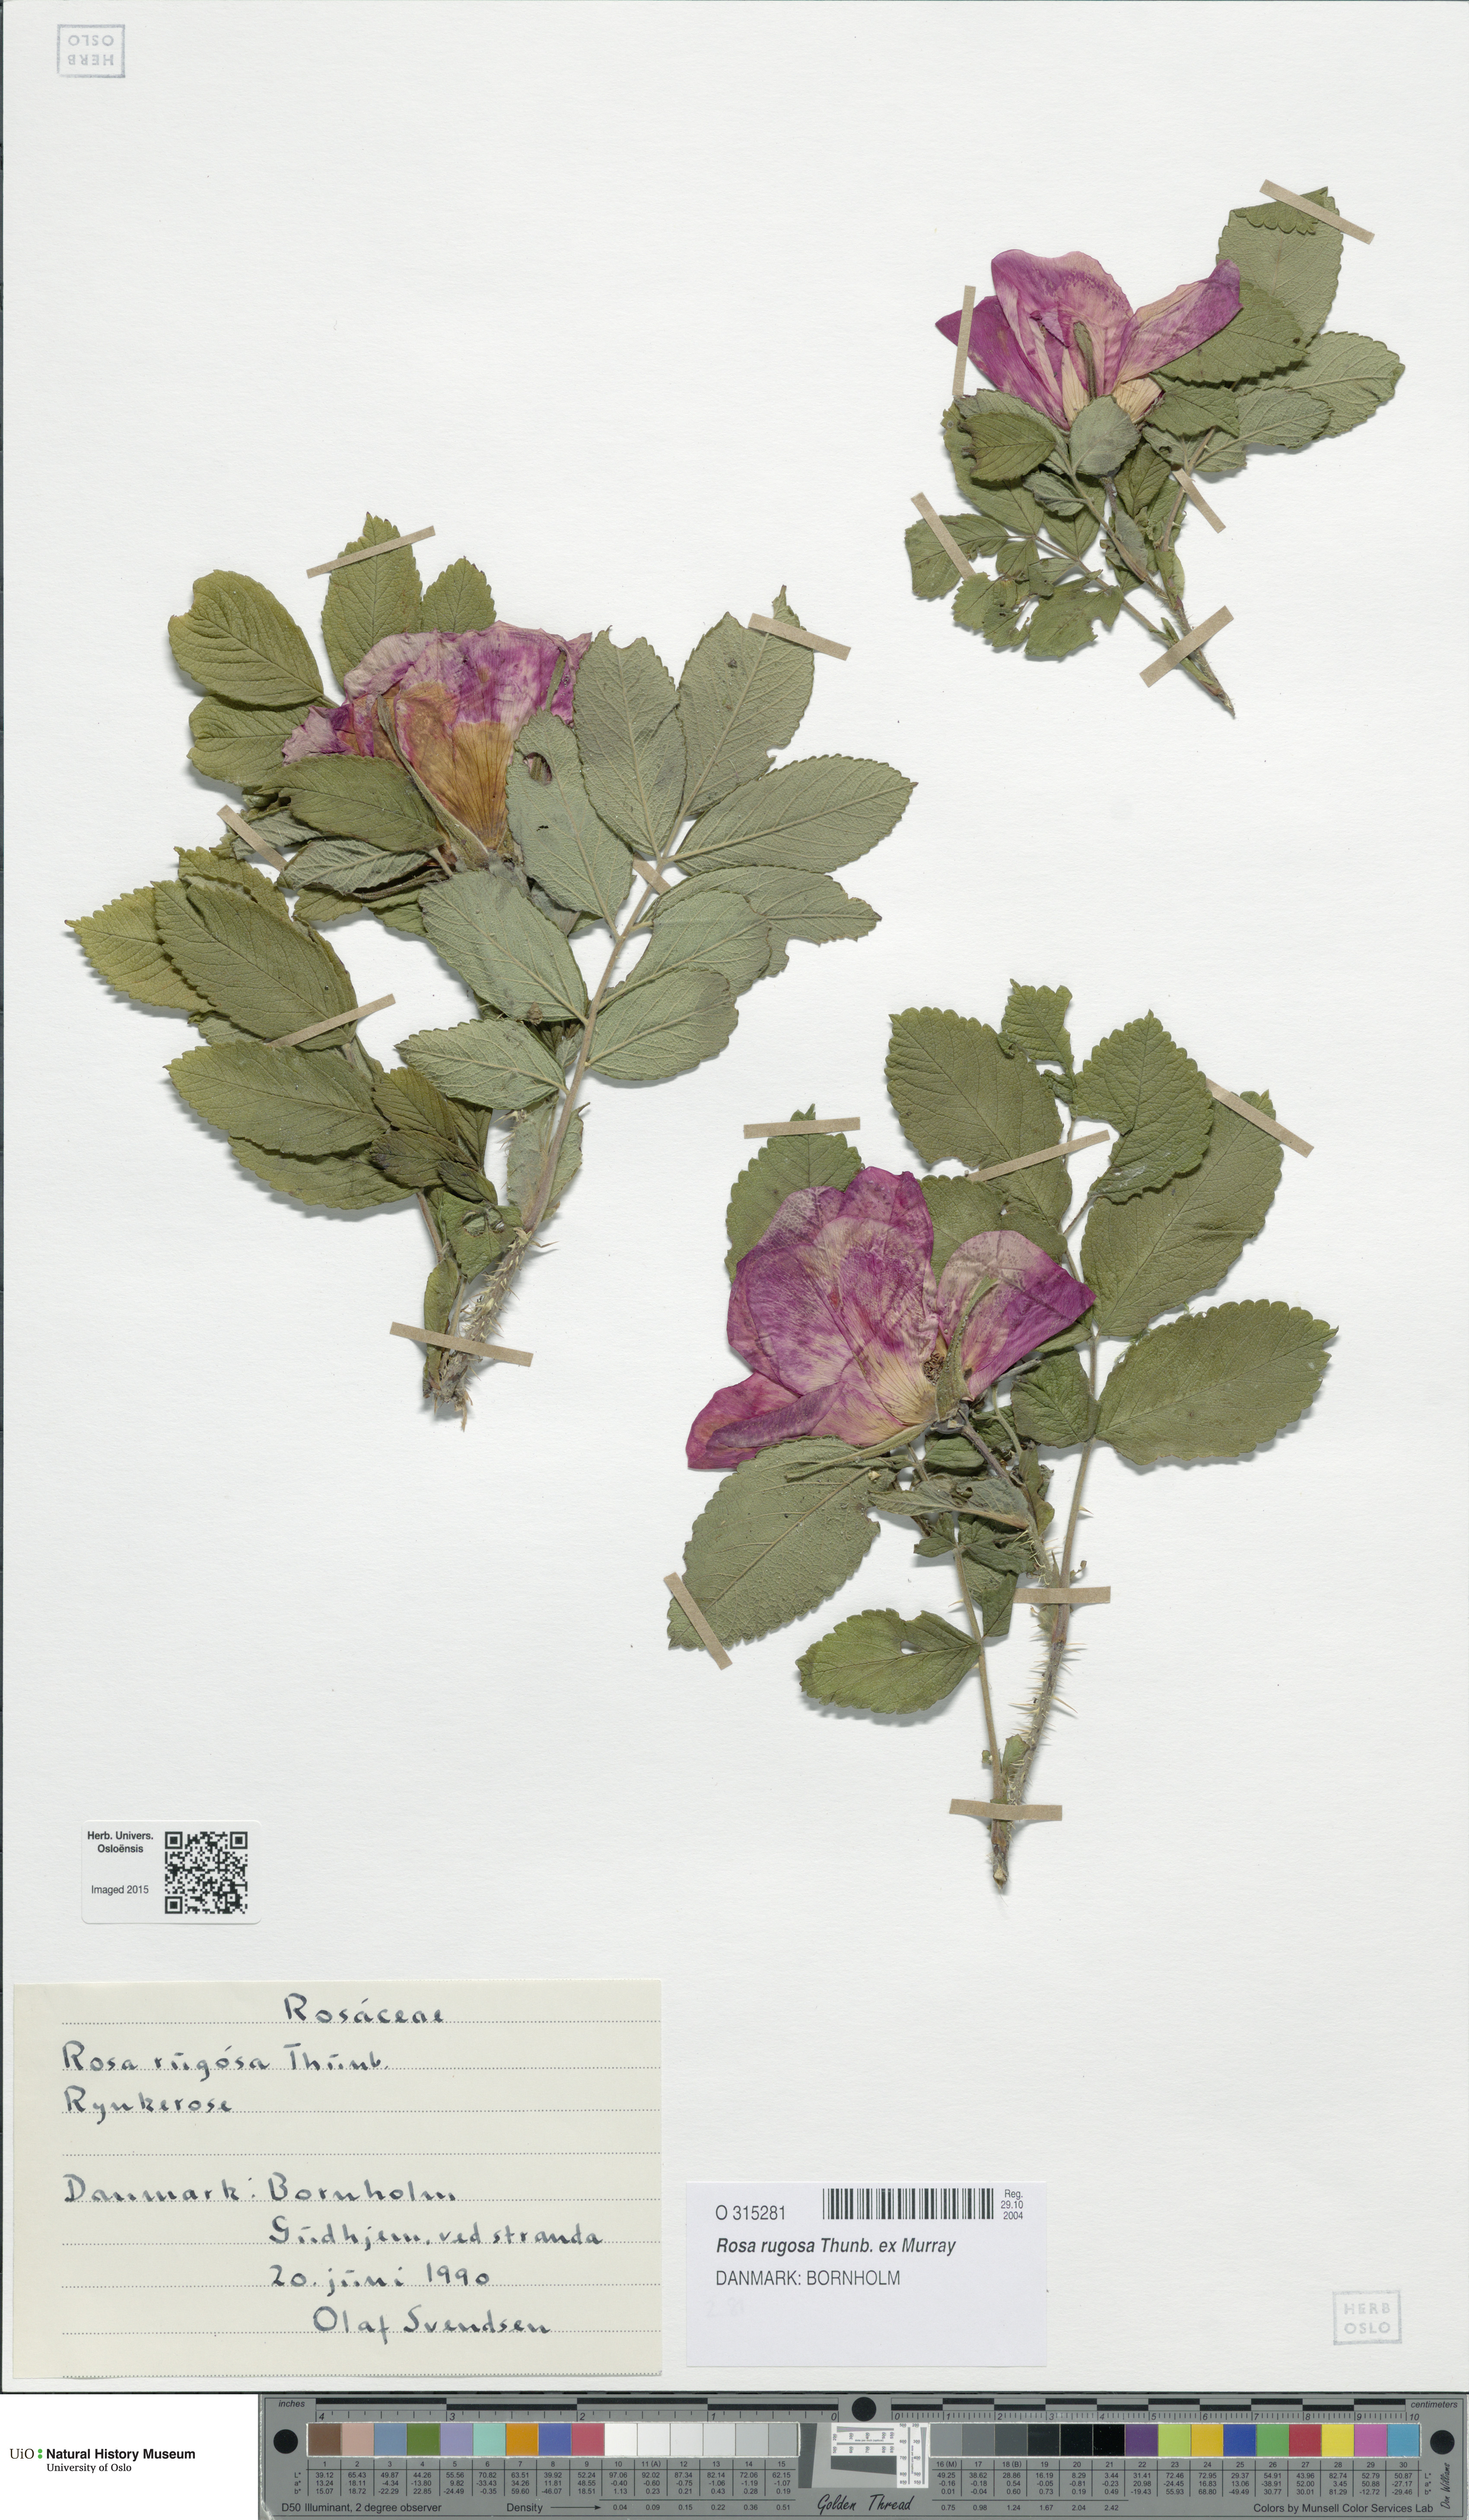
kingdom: Plantae
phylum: Tracheophyta
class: Magnoliopsida
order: Rosales
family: Rosaceae
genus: Rosa
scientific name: Rosa rugosa
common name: Japanese rose
